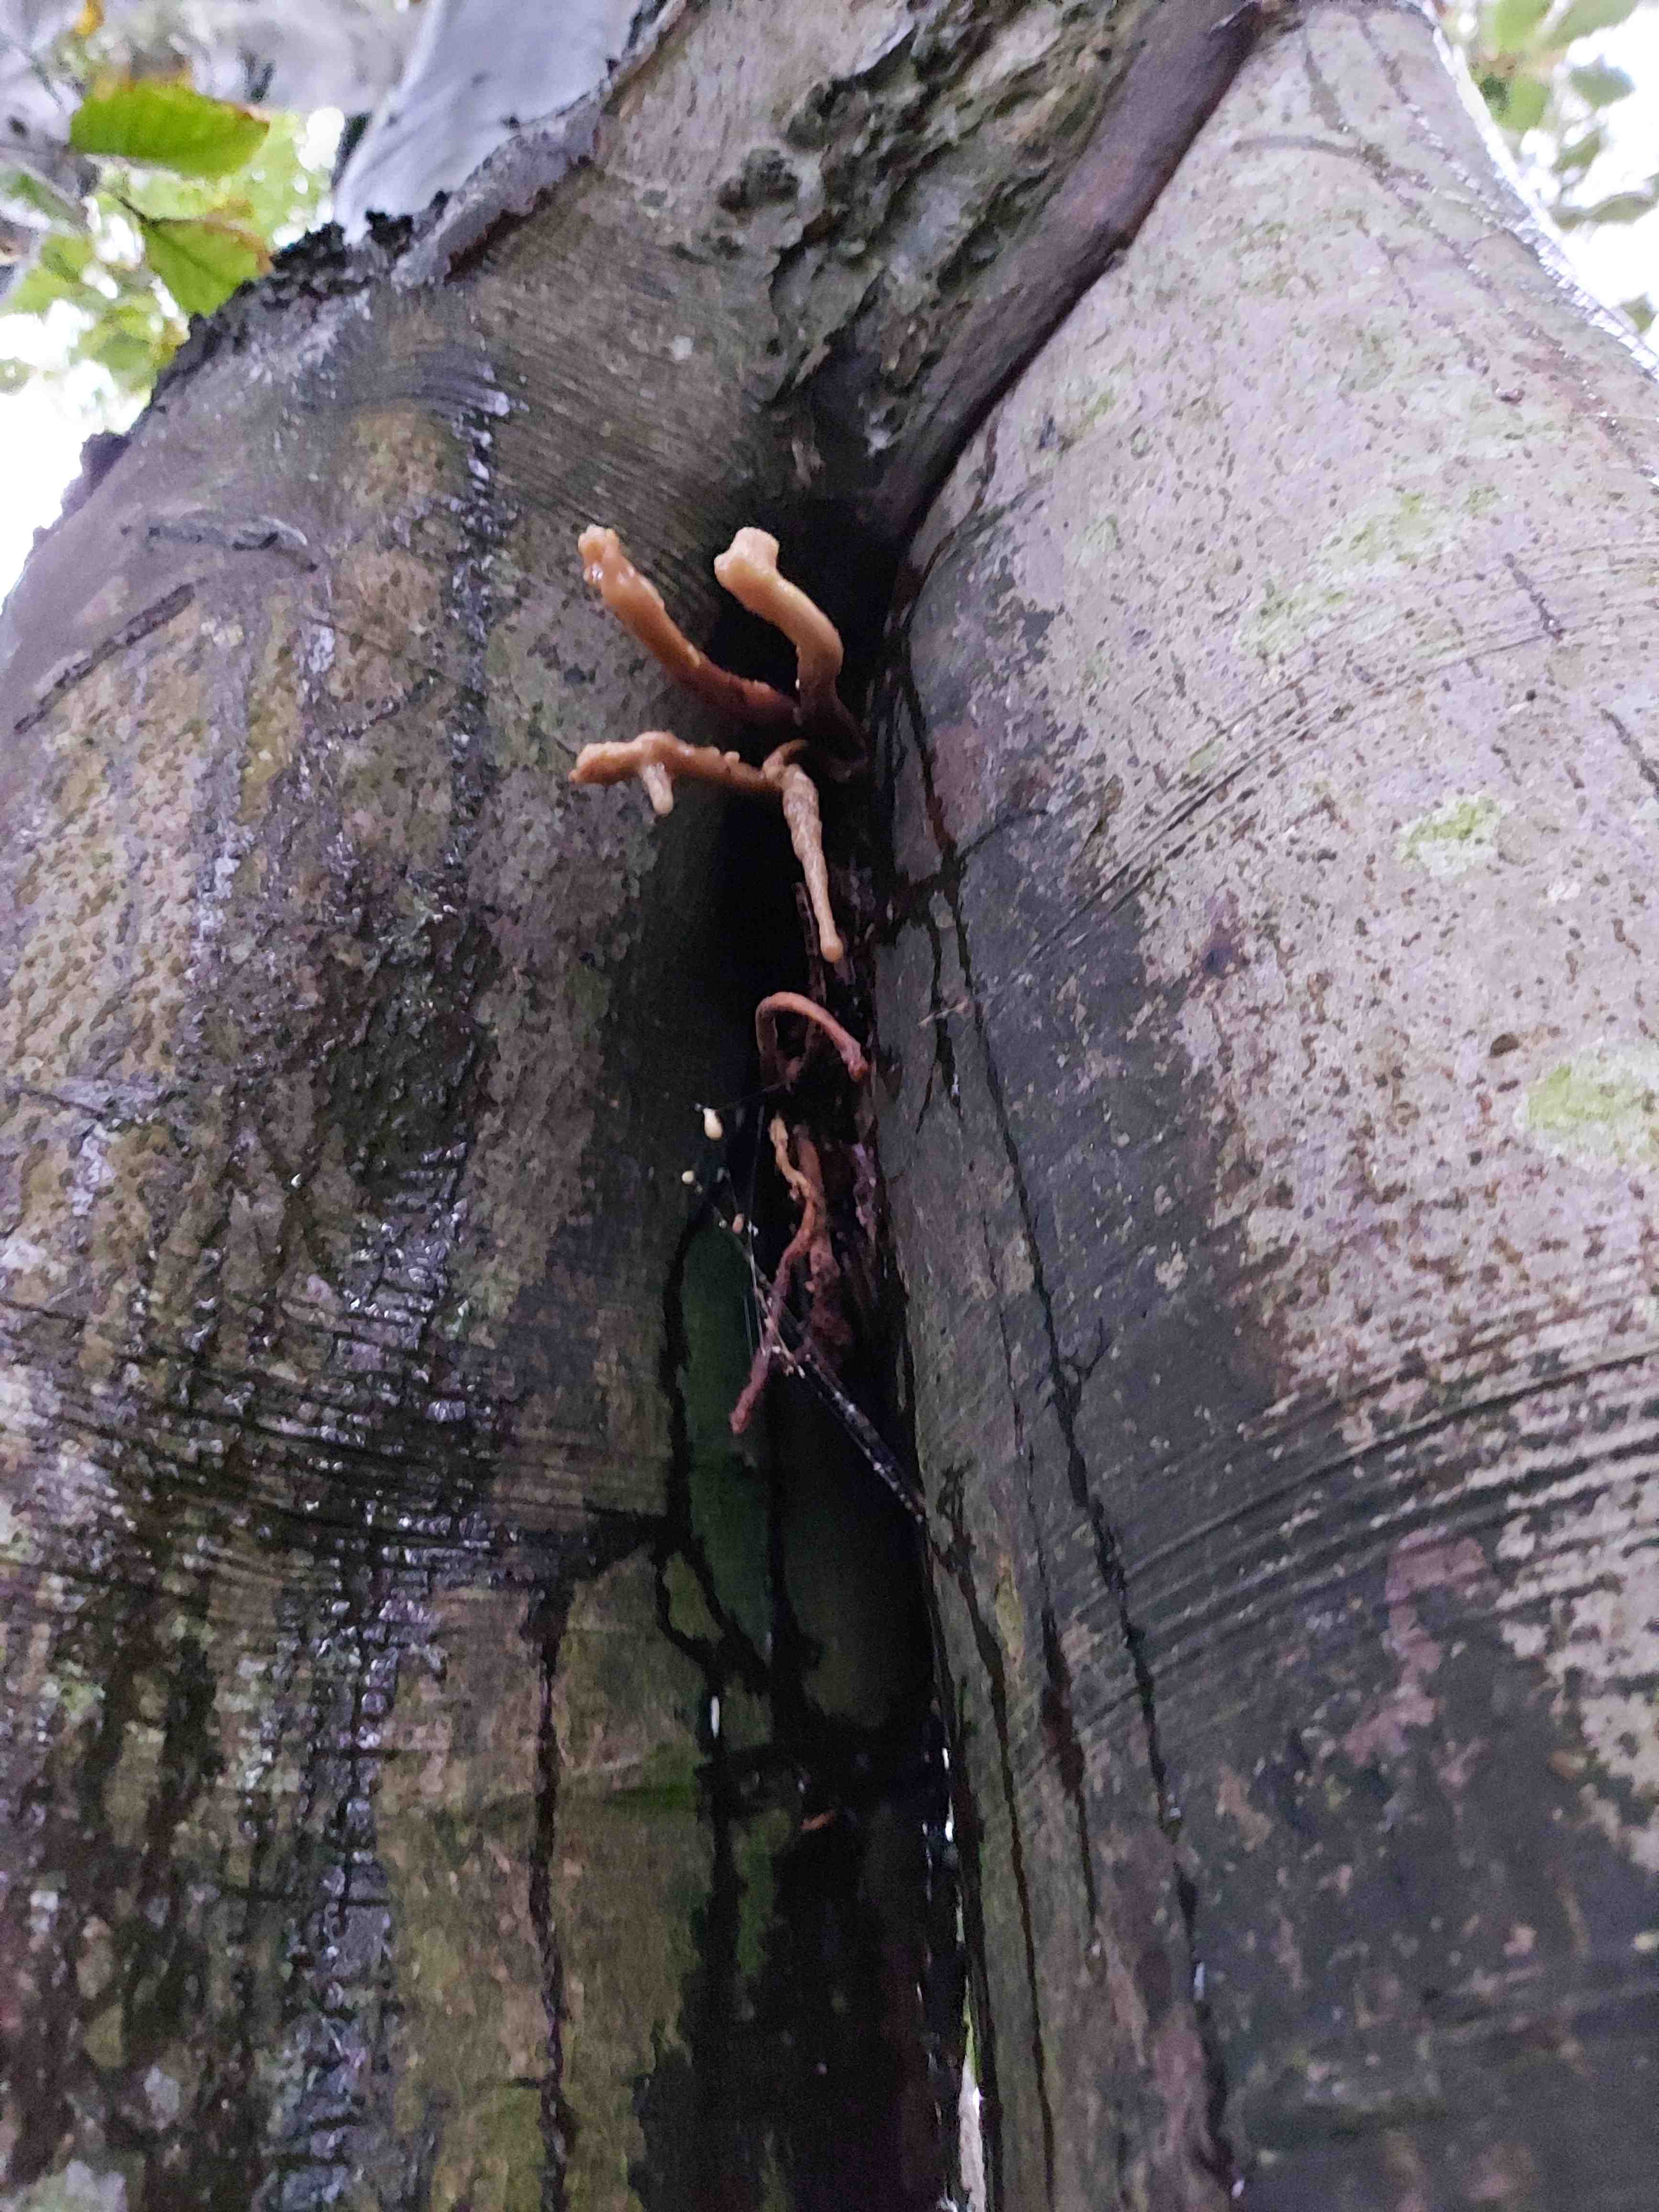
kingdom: Fungi
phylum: Basidiomycota
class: Agaricomycetes
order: Agaricales
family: Typhulaceae
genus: Typhula
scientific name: Typhula fistulosa
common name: pibet rørkølle
